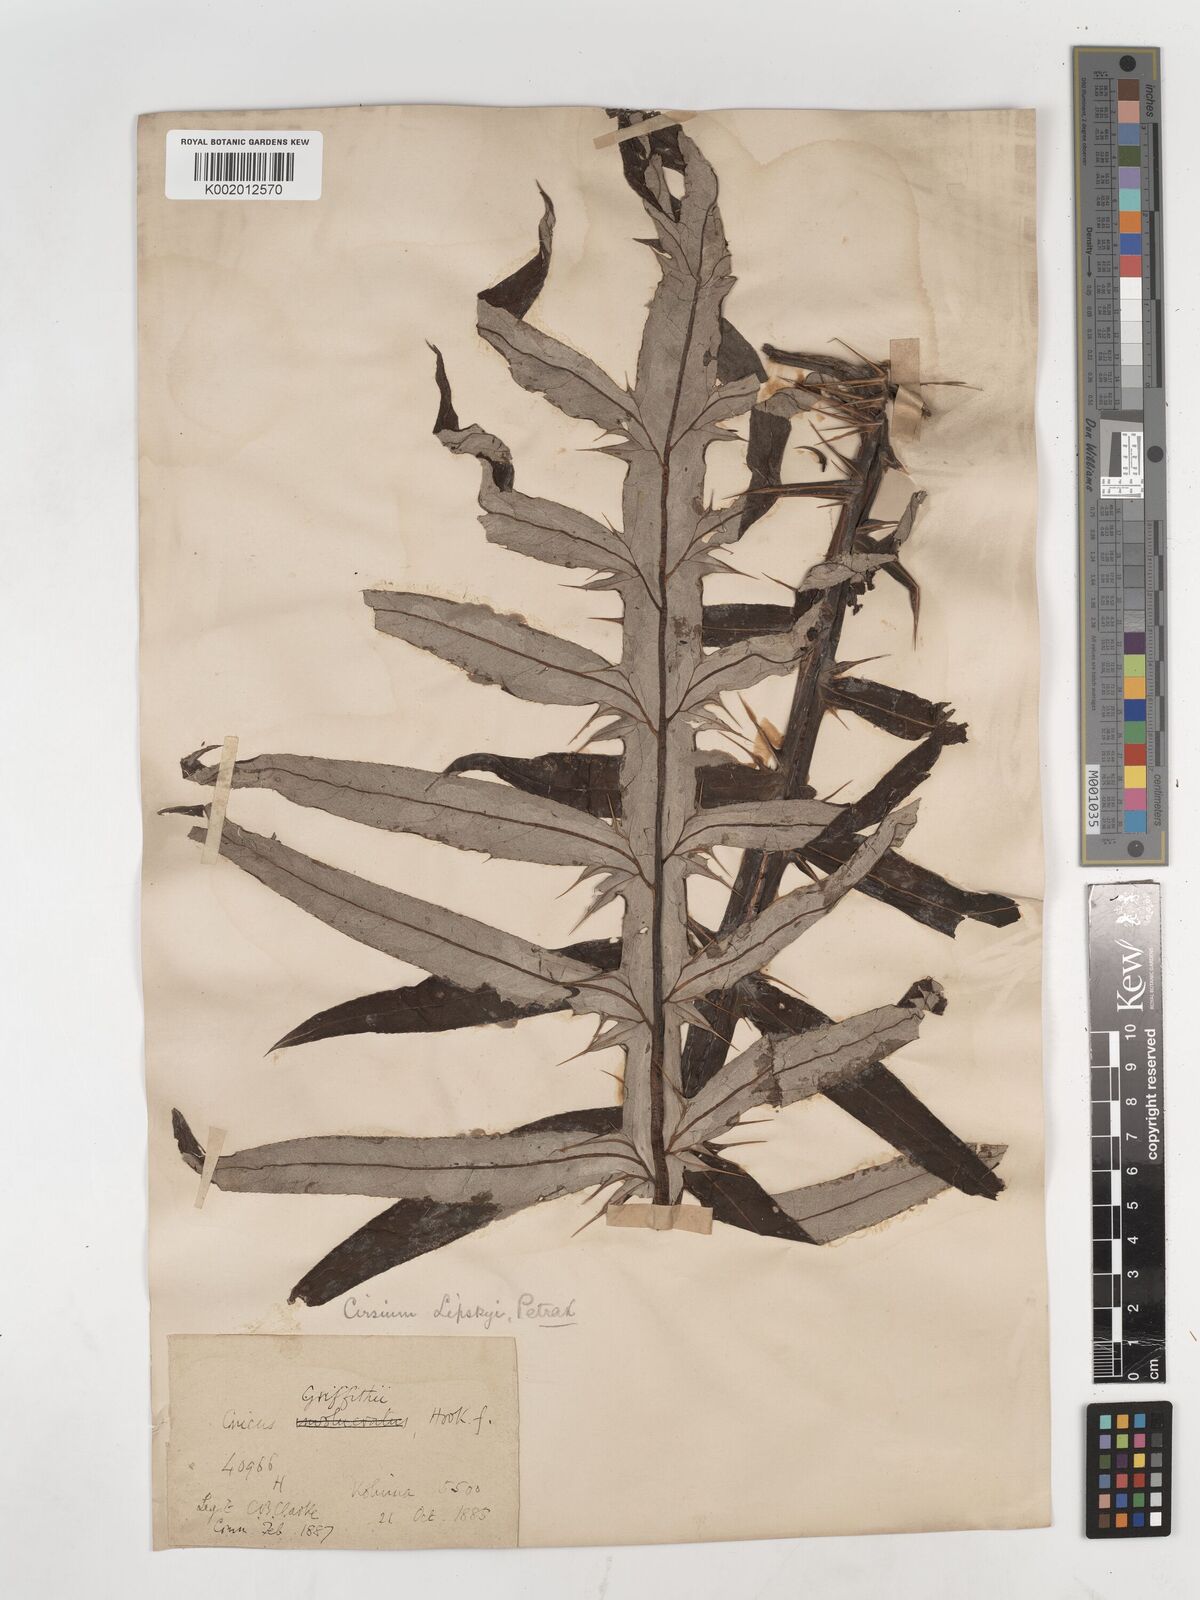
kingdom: Plantae
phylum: Tracheophyta
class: Magnoliopsida
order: Asterales
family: Asteraceae
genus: Lophiolepis
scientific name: Lophiolepis griffithii
